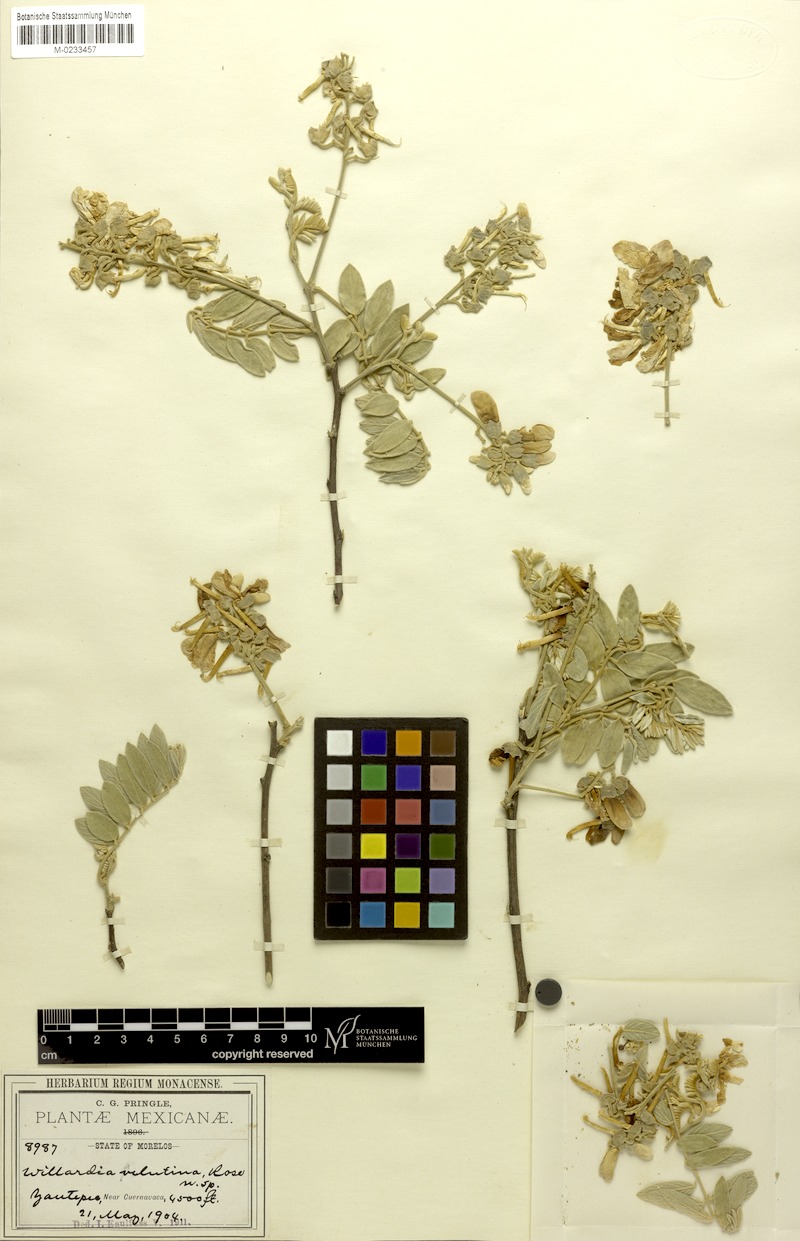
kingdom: Plantae
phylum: Tracheophyta
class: Magnoliopsida
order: Fabales
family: Fabaceae
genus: Lonchocarpus
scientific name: Lonchocarpus eriophyllus
